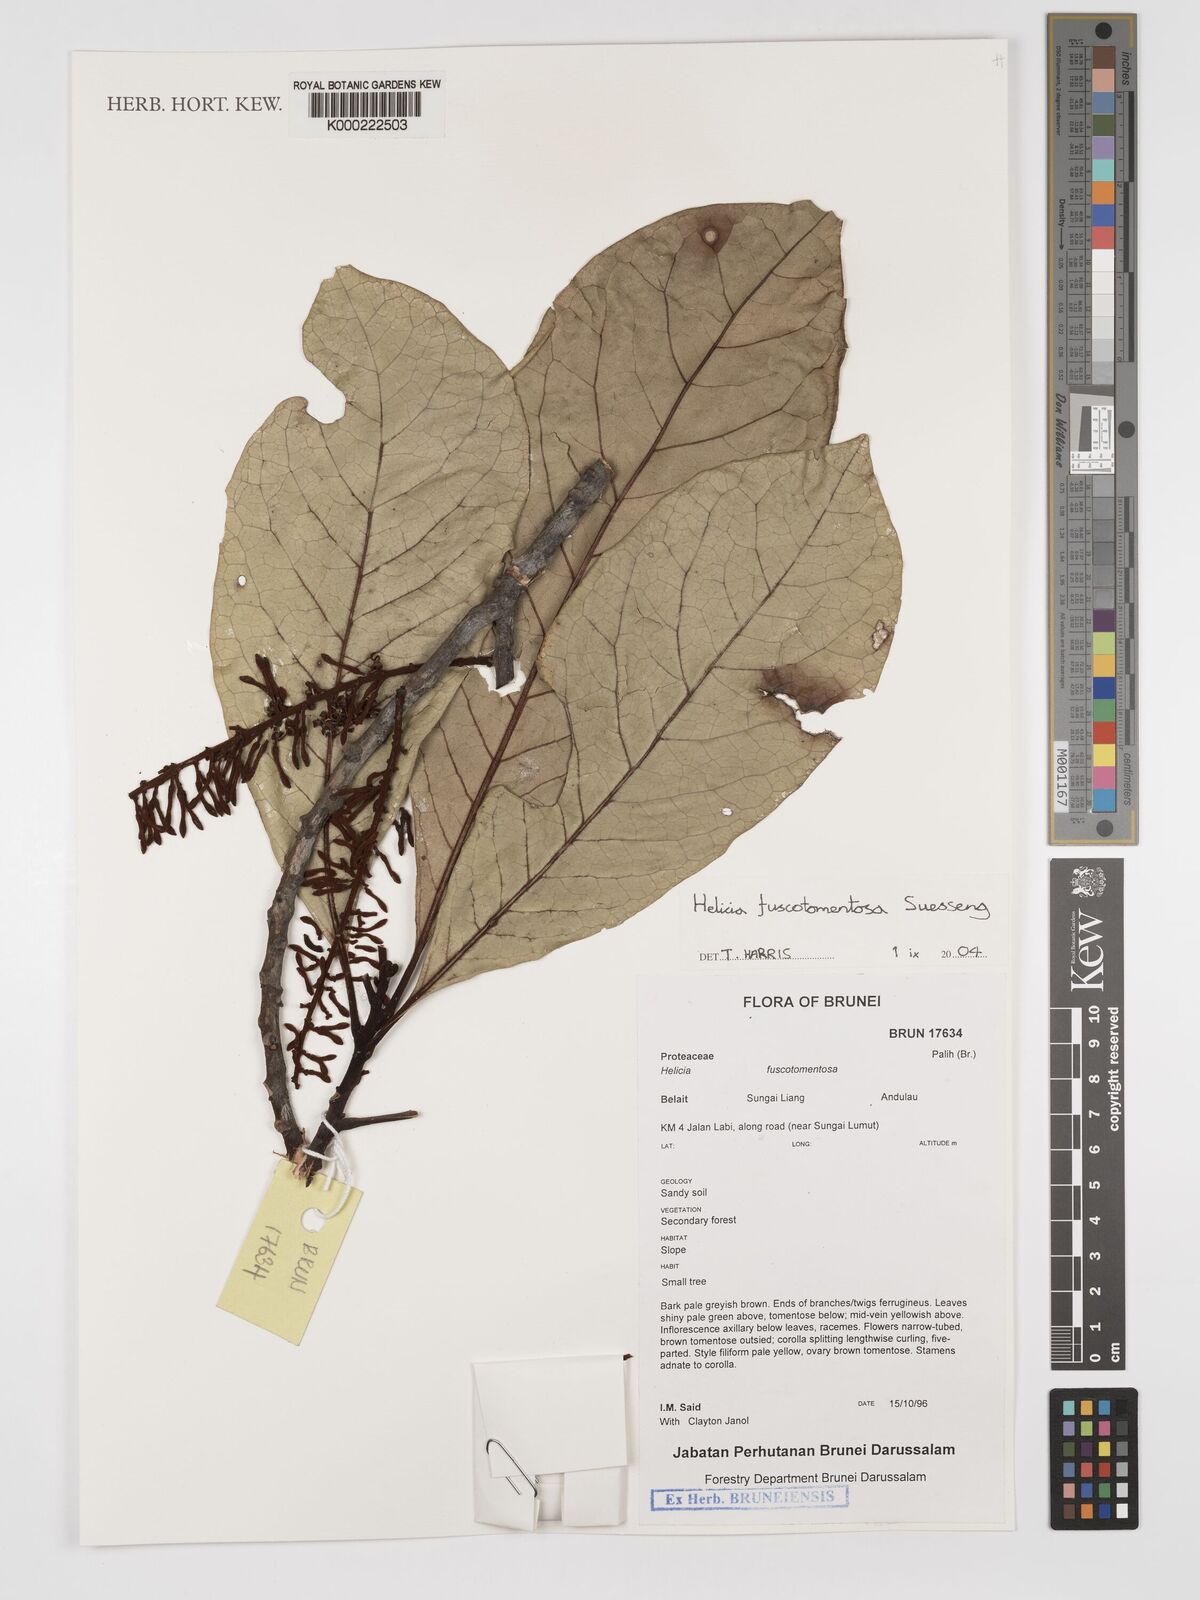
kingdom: Plantae
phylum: Tracheophyta
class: Magnoliopsida
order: Proteales
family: Proteaceae
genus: Helicia
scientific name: Helicia fuscotomentosa
